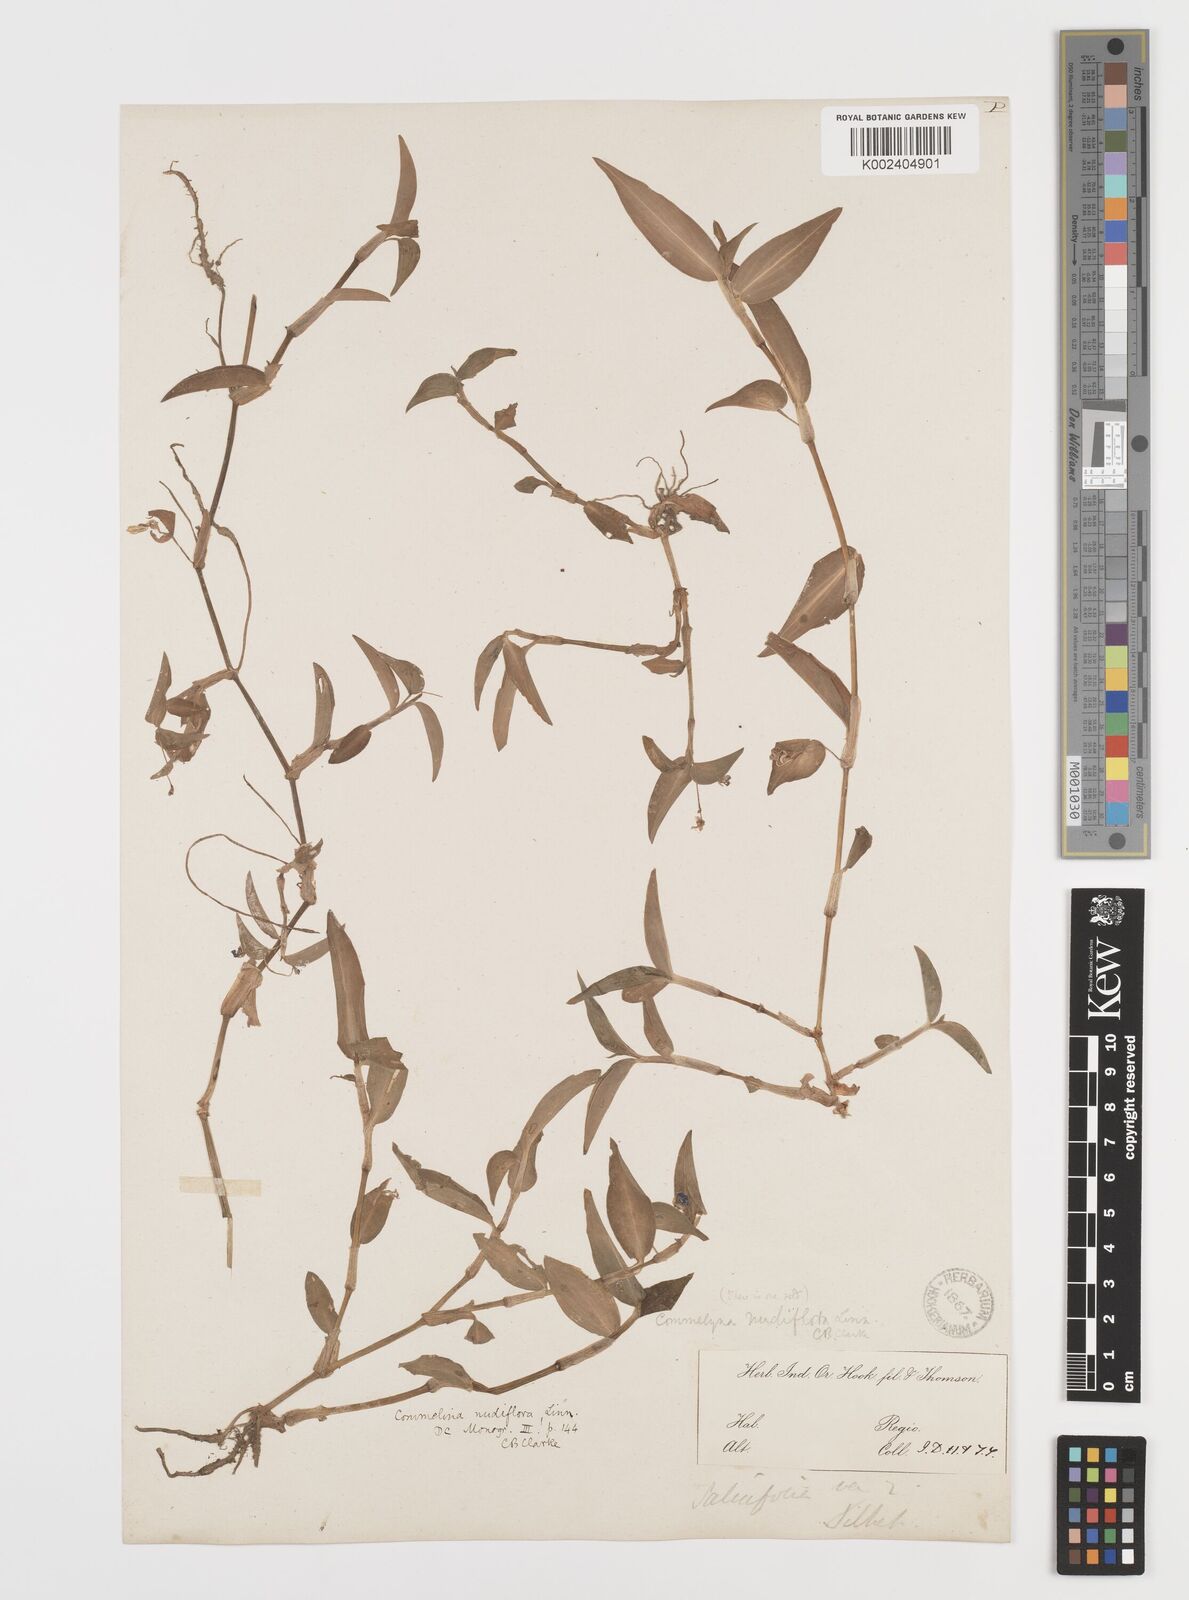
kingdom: Plantae
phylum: Tracheophyta
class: Liliopsida
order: Commelinales
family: Commelinaceae
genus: Commelina
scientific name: Commelina diffusa
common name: Climbing dayflower
